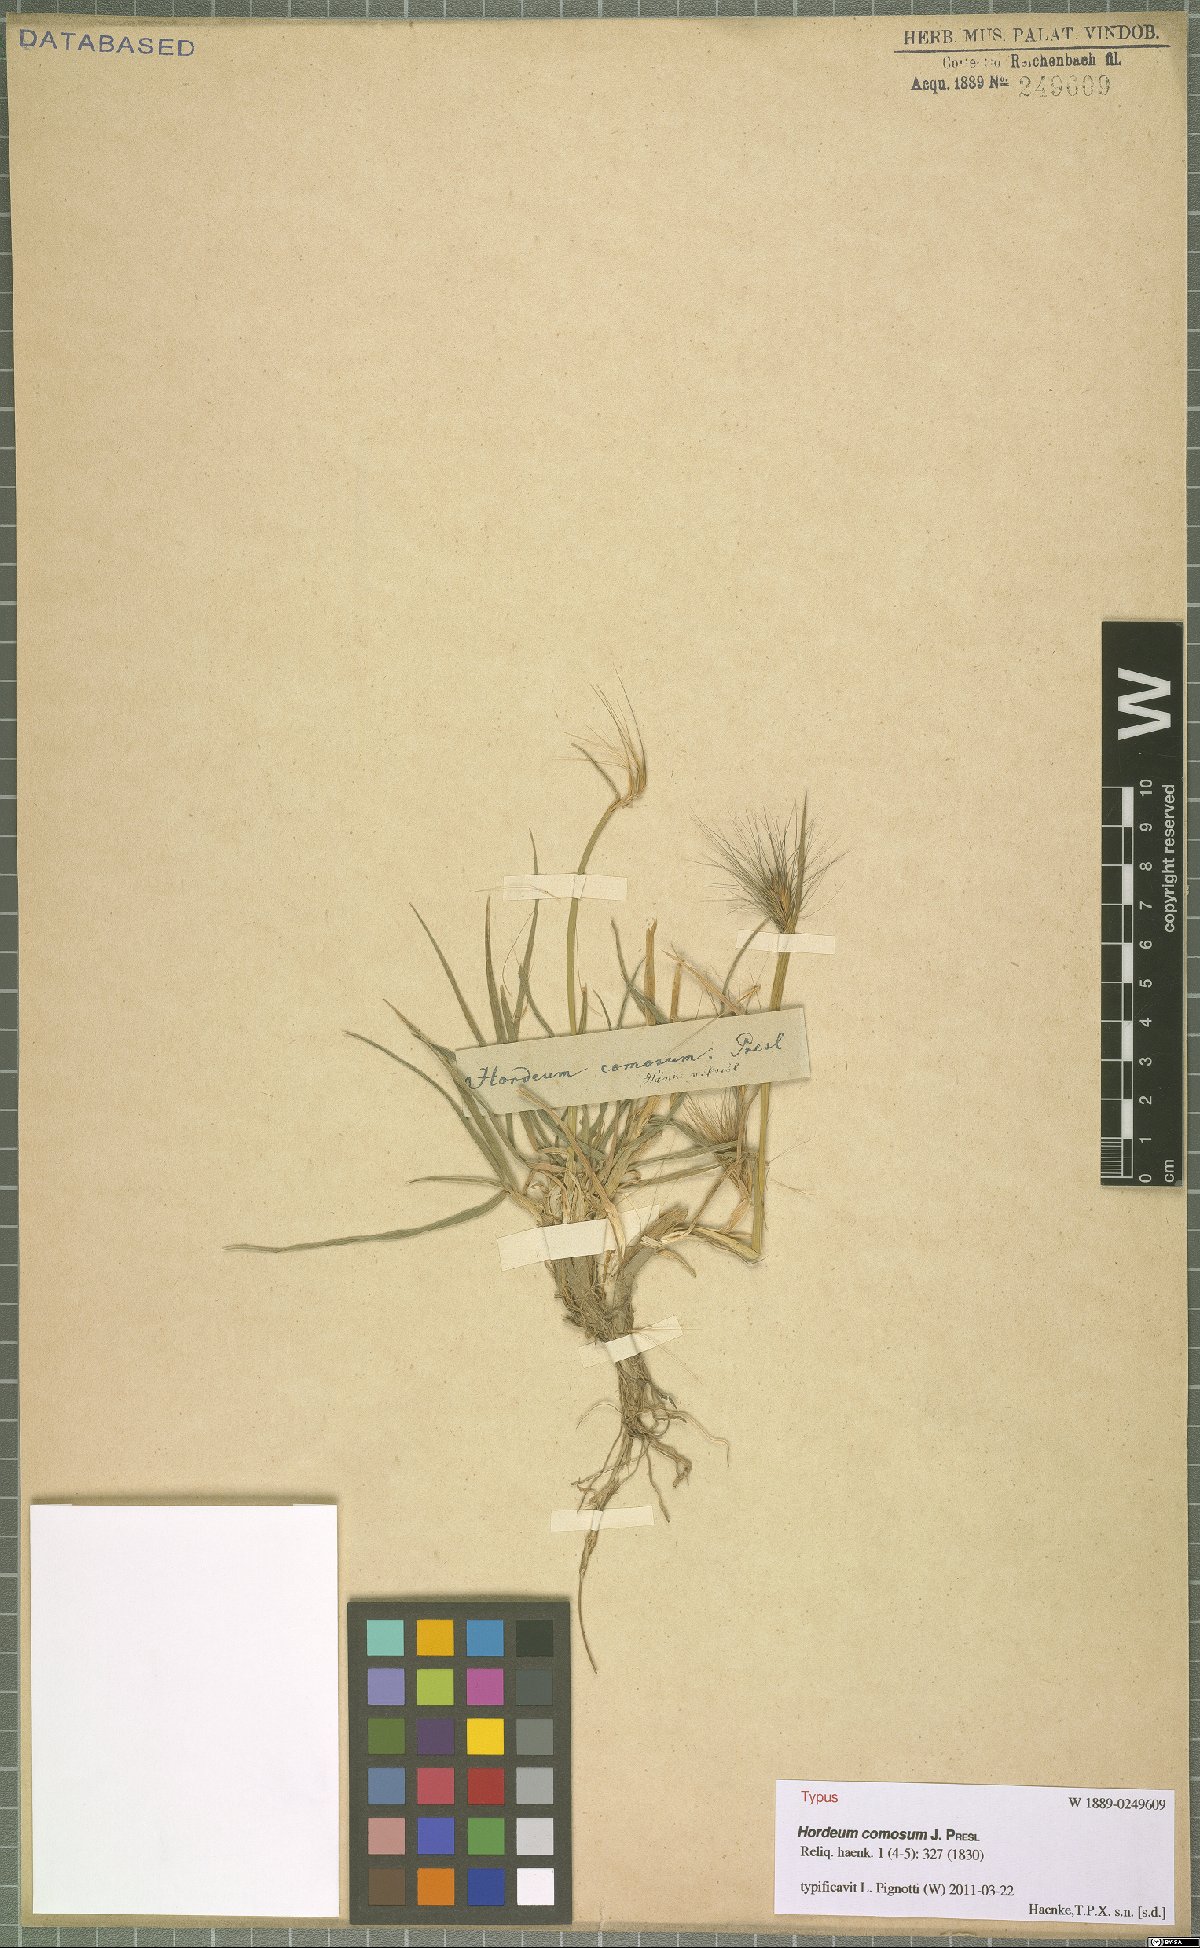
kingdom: Plantae
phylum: Tracheophyta
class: Liliopsida
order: Poales
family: Poaceae
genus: Hordeum
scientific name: Hordeum comosum
